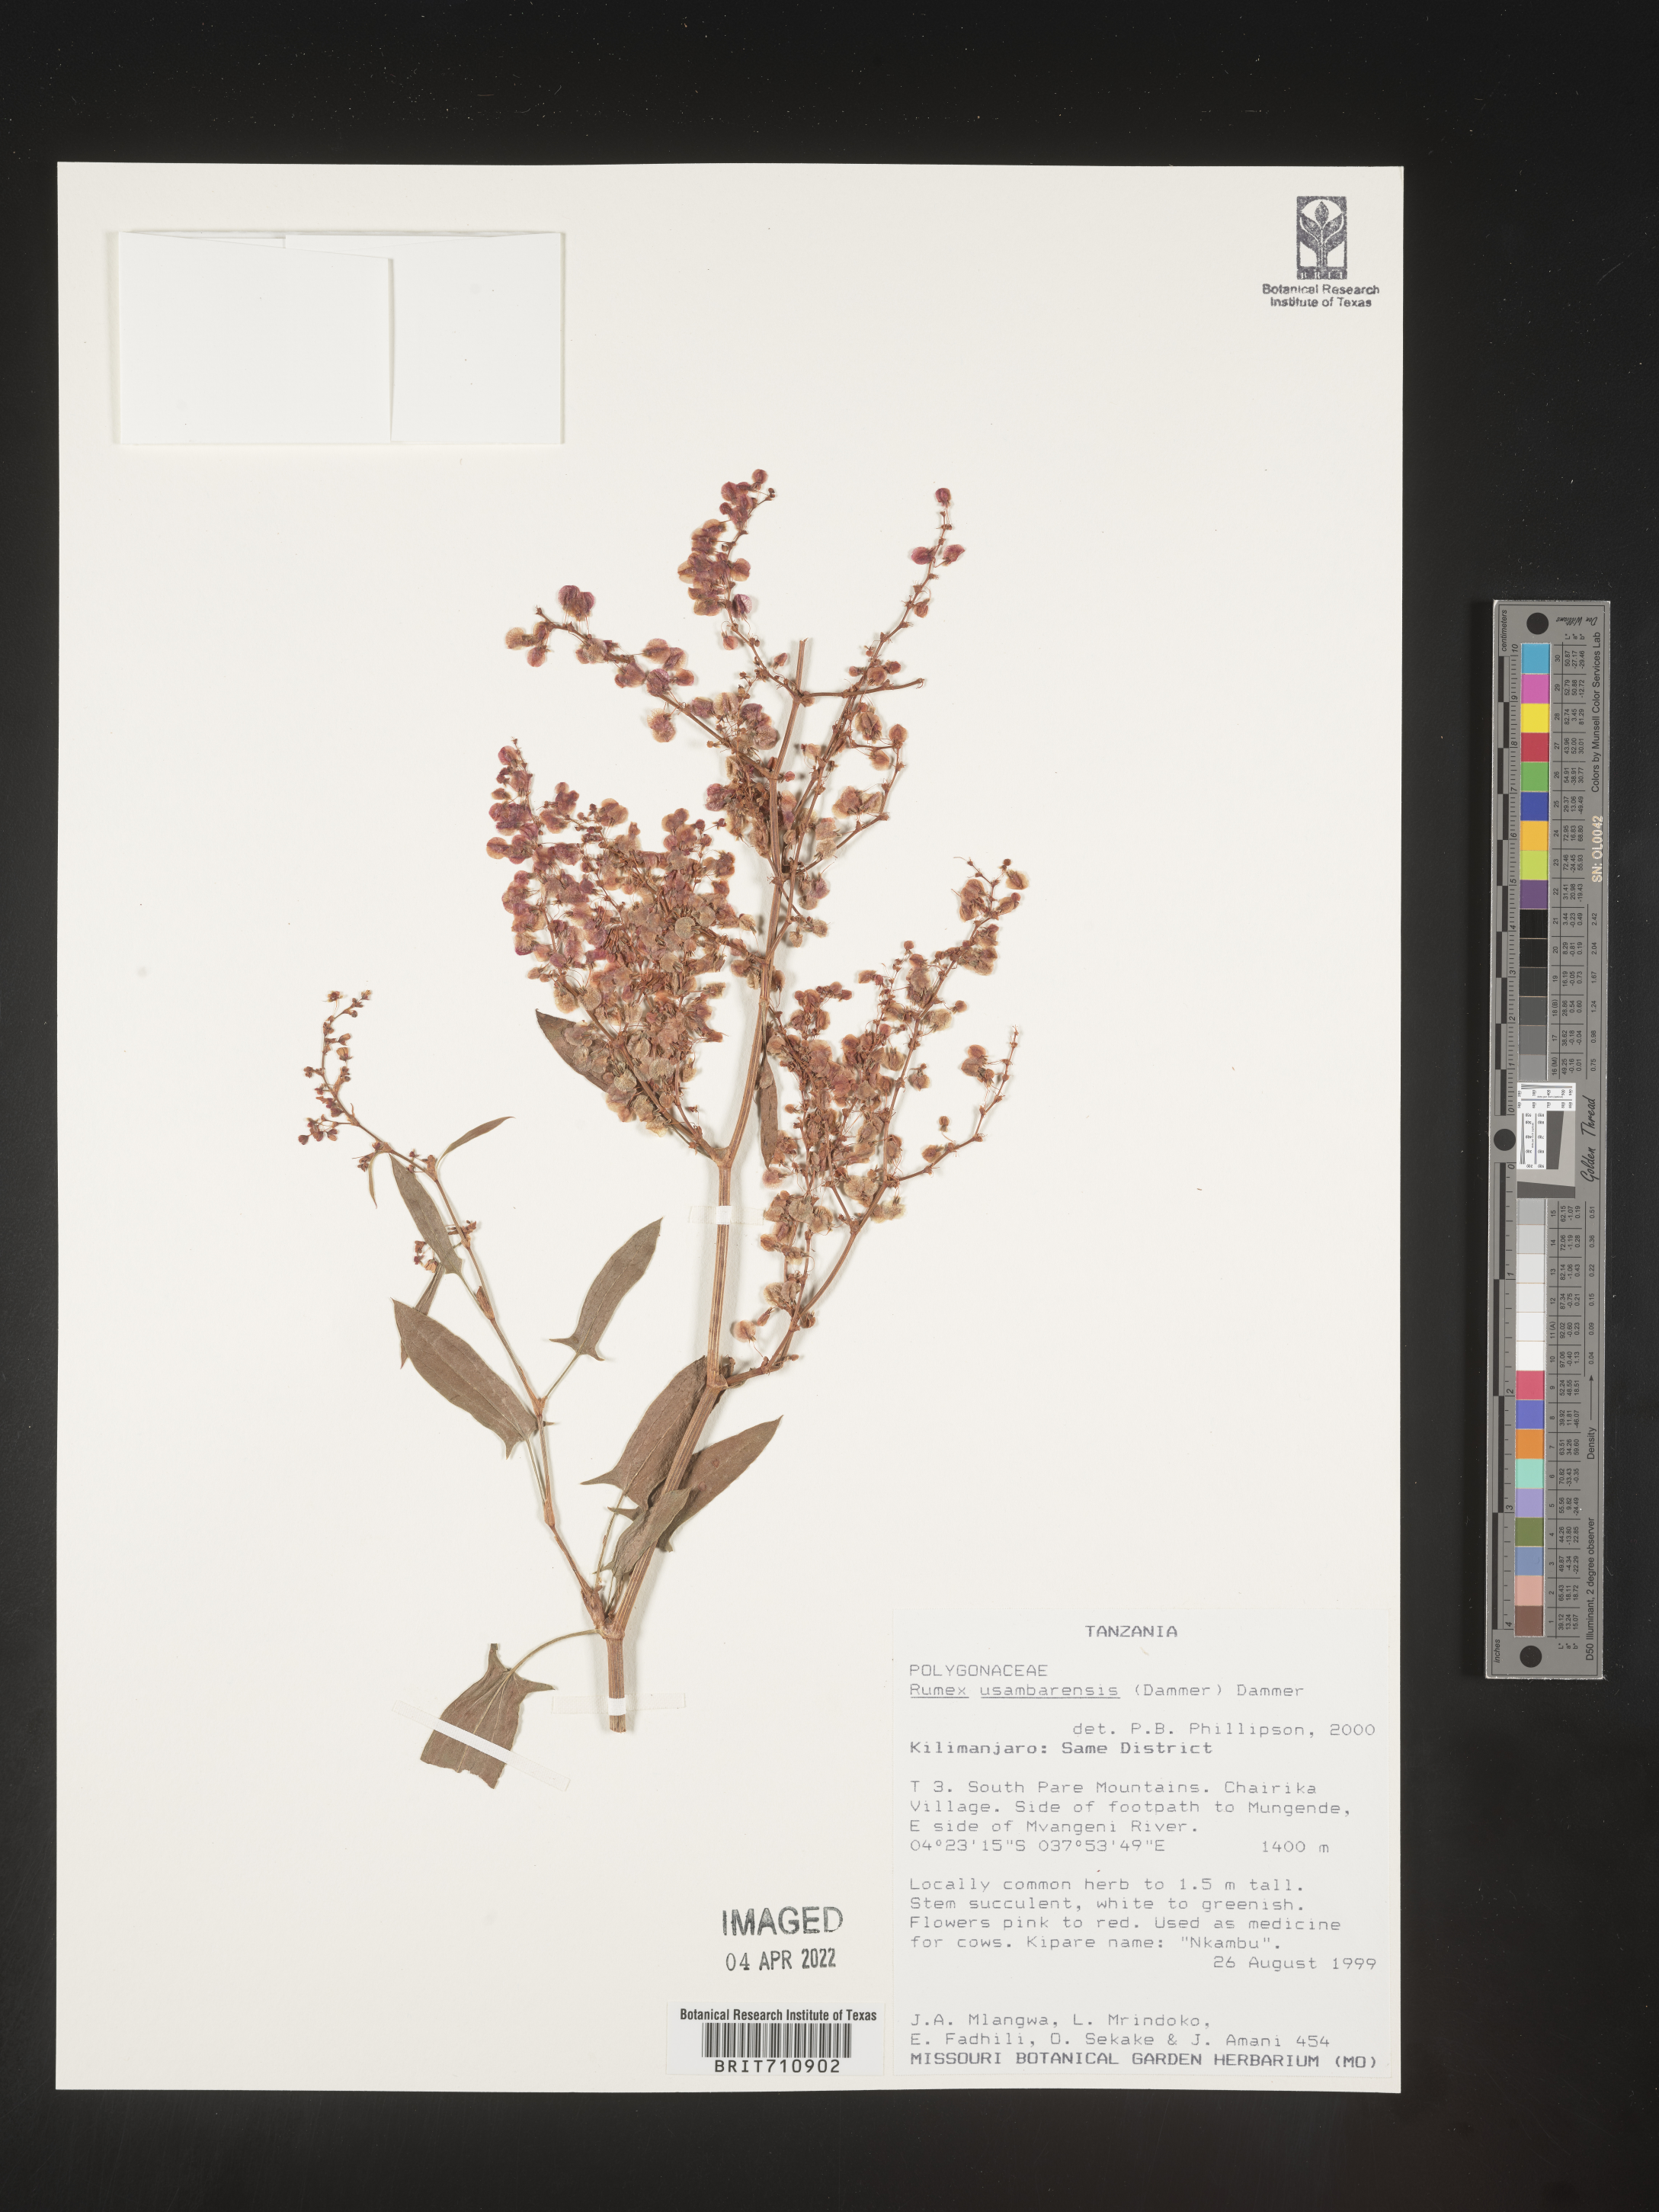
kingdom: Plantae
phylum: Tracheophyta
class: Magnoliopsida
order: Caryophyllales
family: Polygonaceae
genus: Rumex
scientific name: Rumex
